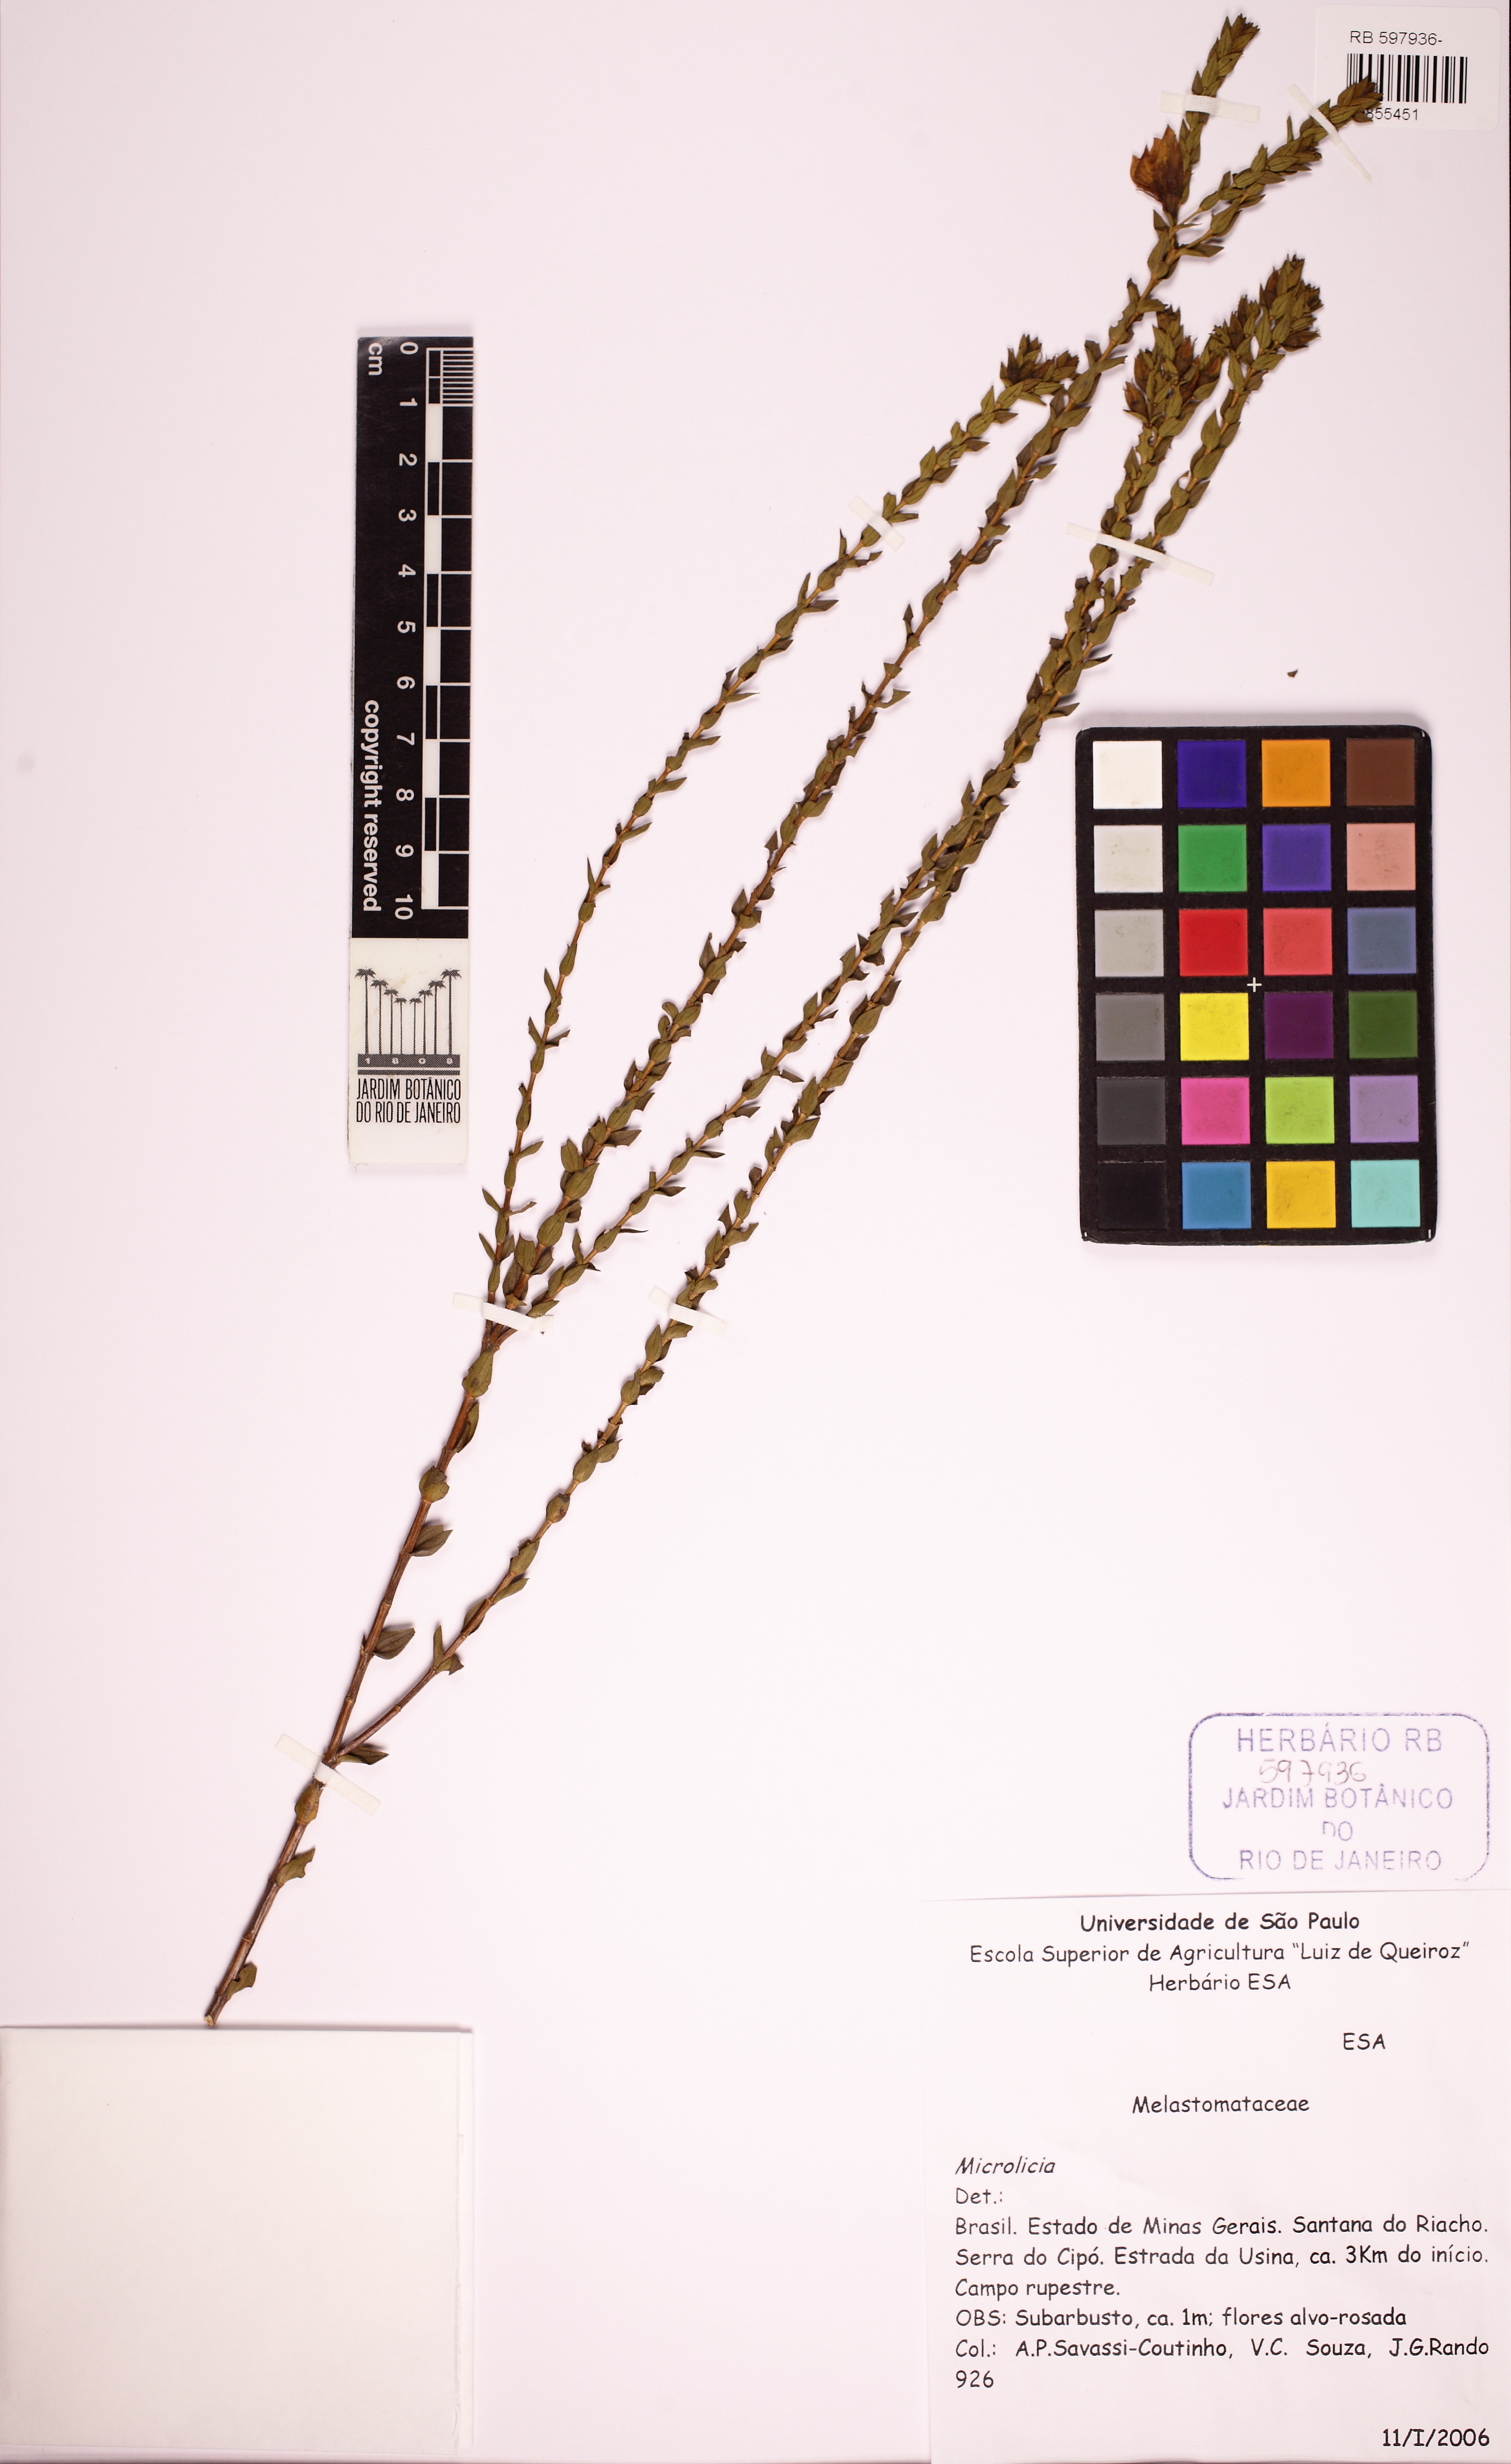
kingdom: Plantae
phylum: Tracheophyta
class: Magnoliopsida
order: Myrtales
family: Melastomataceae
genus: Microlicia
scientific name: Microlicia candolleana
